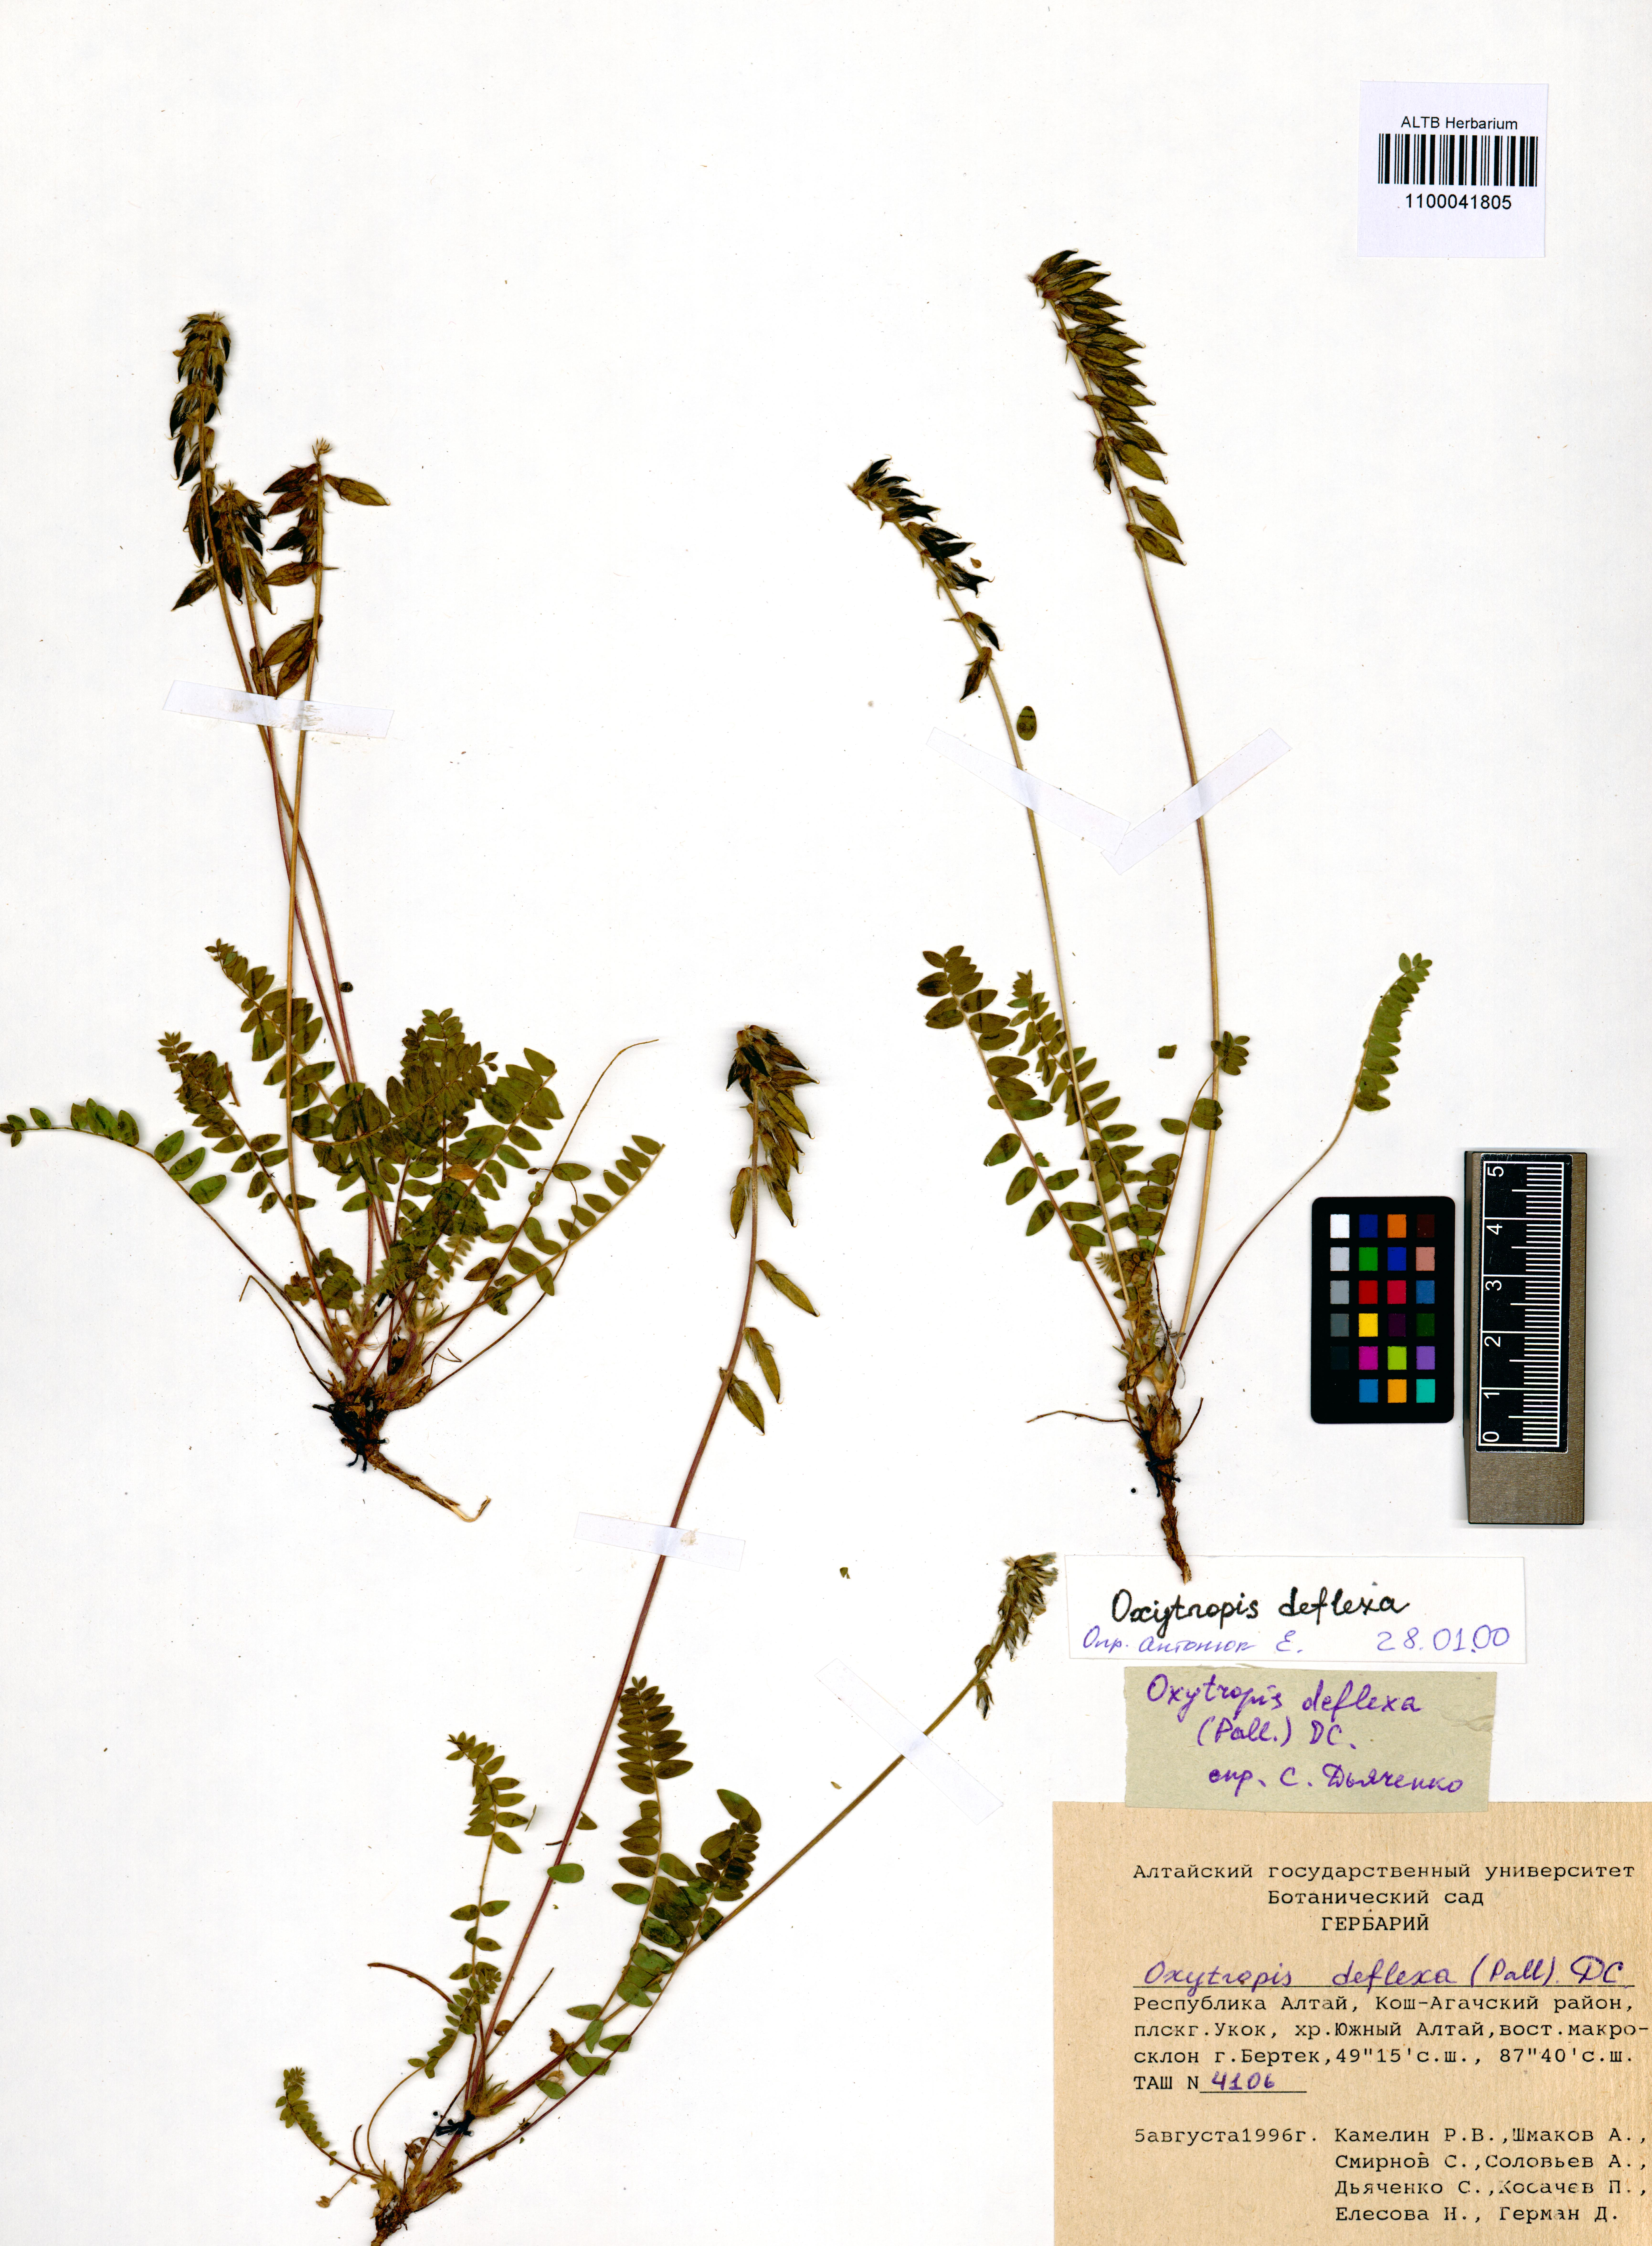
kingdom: Plantae
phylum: Tracheophyta
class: Magnoliopsida
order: Fabales
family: Fabaceae
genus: Oxytropis
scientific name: Oxytropis deflexa
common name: Stemmed oxytrope
